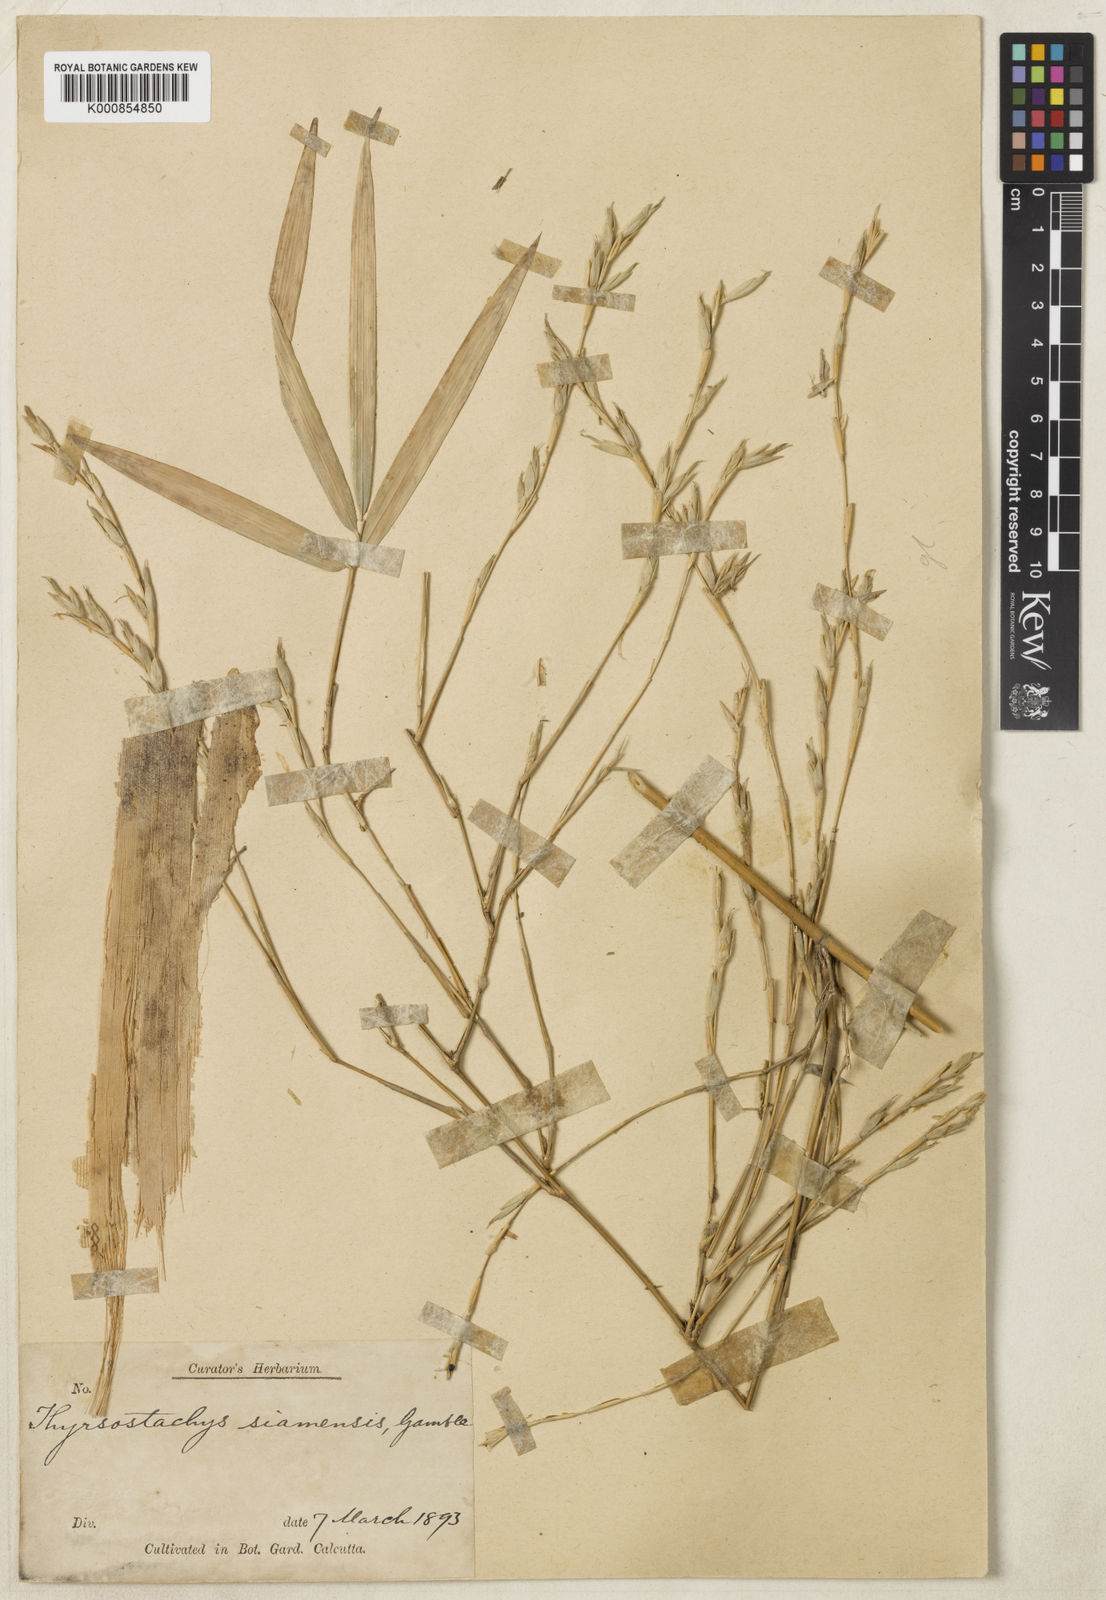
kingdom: Plantae
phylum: Tracheophyta
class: Liliopsida
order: Poales
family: Poaceae
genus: Thyrsostachys
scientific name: Thyrsostachys siamensis
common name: Thailand bamboo
